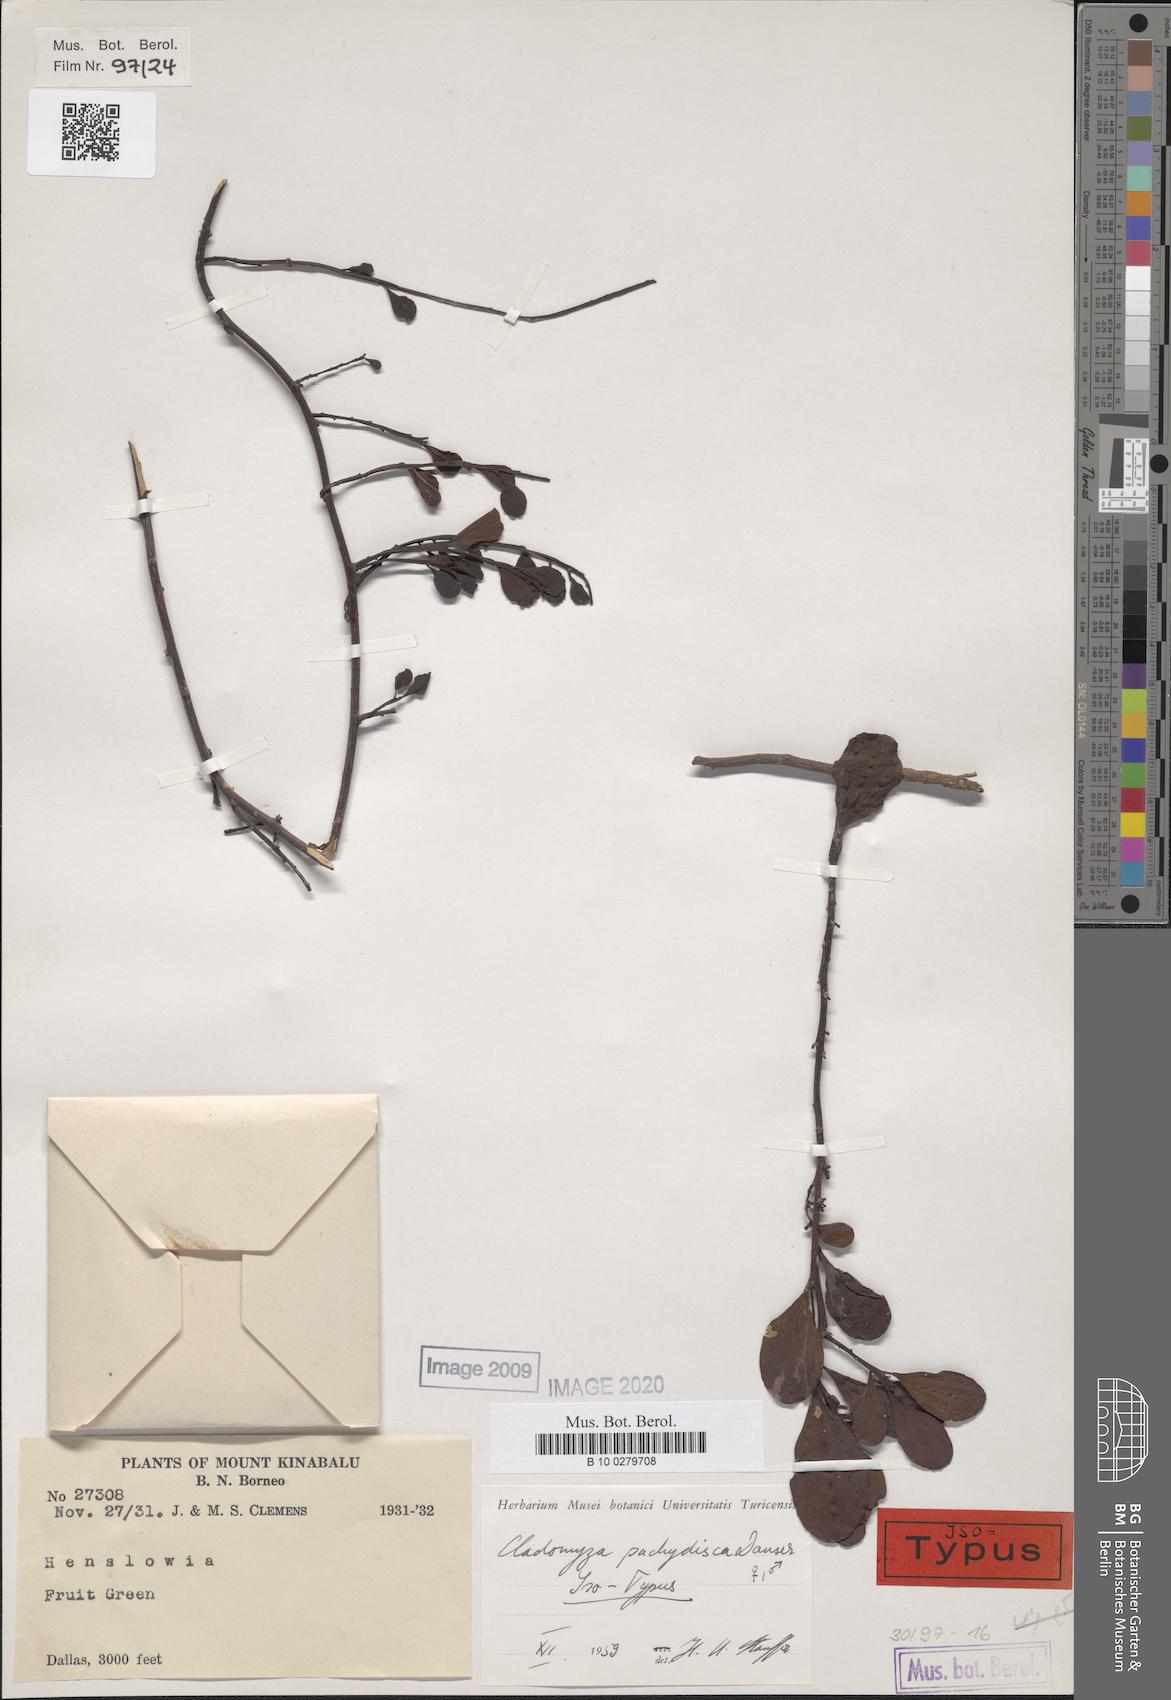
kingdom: Plantae
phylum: Tracheophyta
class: Magnoliopsida
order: Santalales
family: Amphorogynaceae
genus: Dendromyza
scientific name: Dendromyza pachydisca
